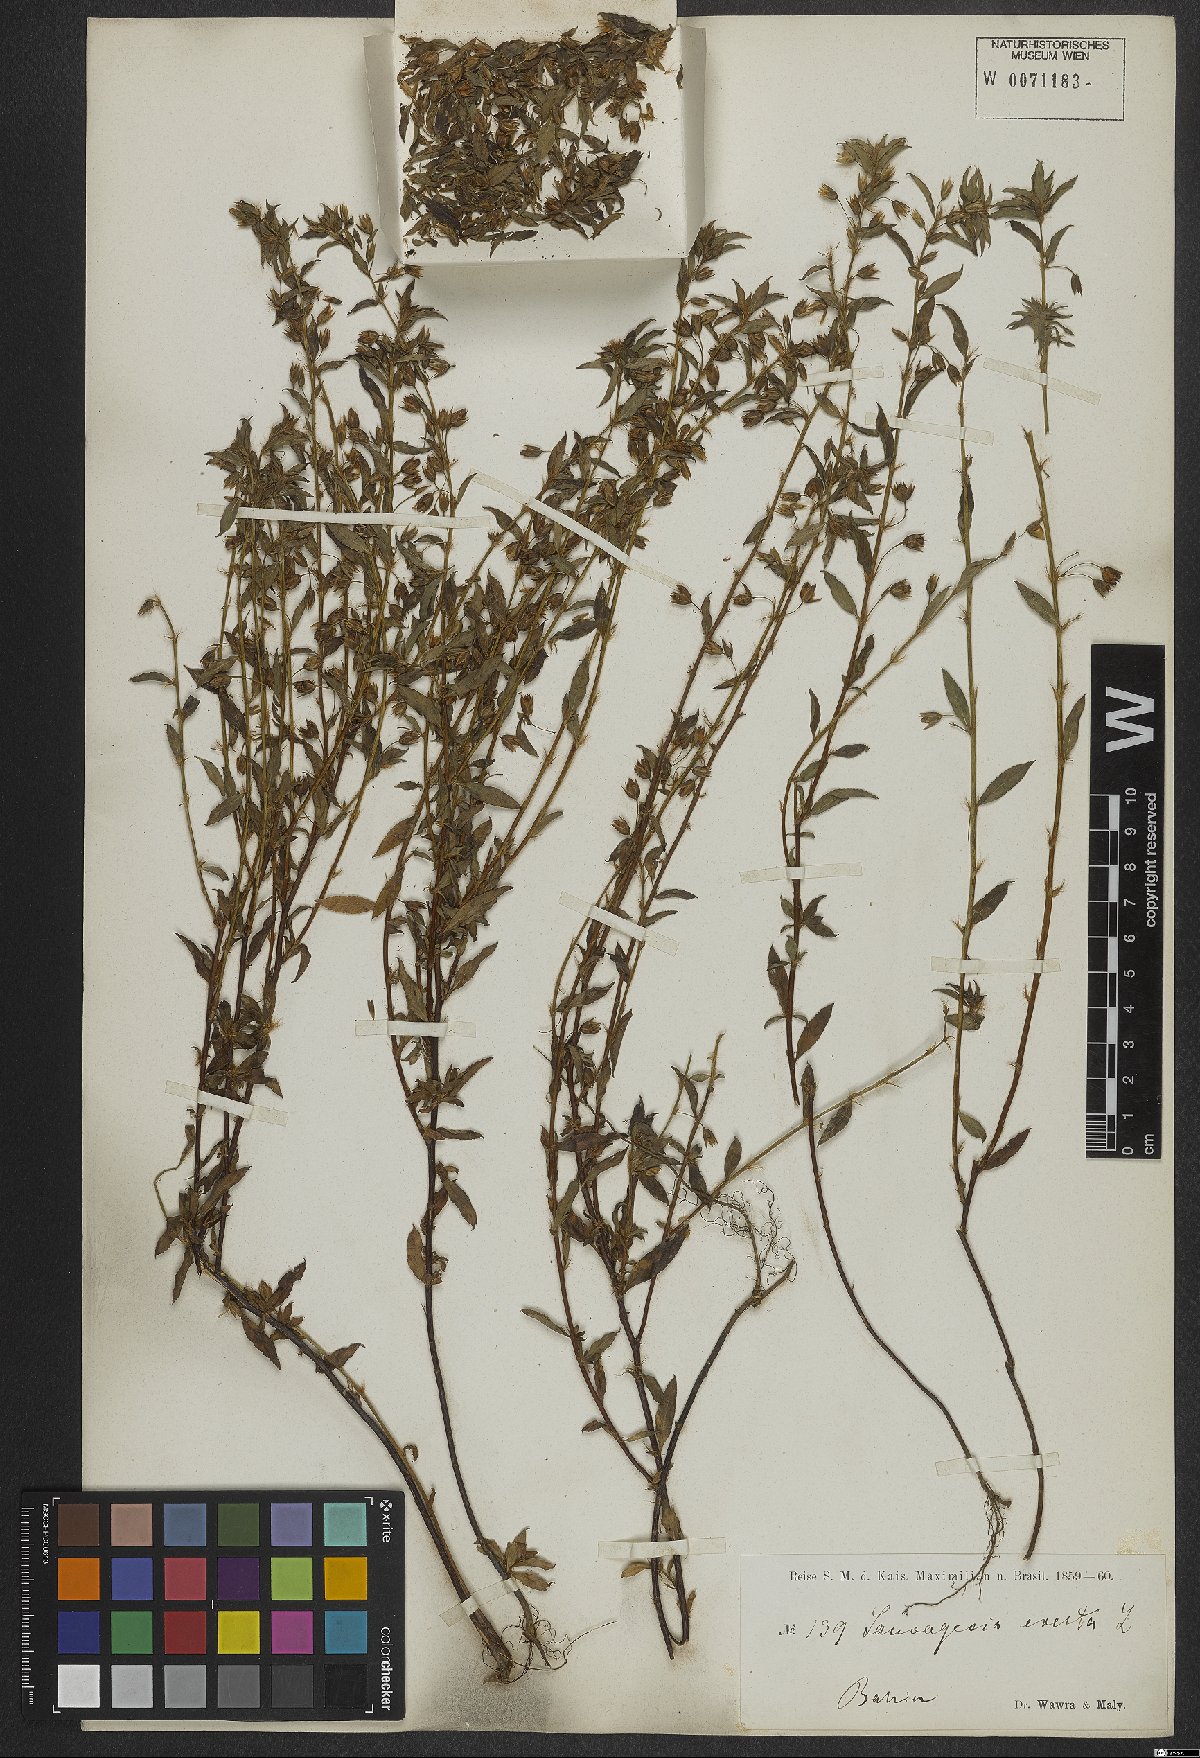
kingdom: Plantae
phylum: Tracheophyta
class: Magnoliopsida
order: Malpighiales
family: Ochnaceae
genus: Sauvagesia
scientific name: Sauvagesia erecta
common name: Creole tea
